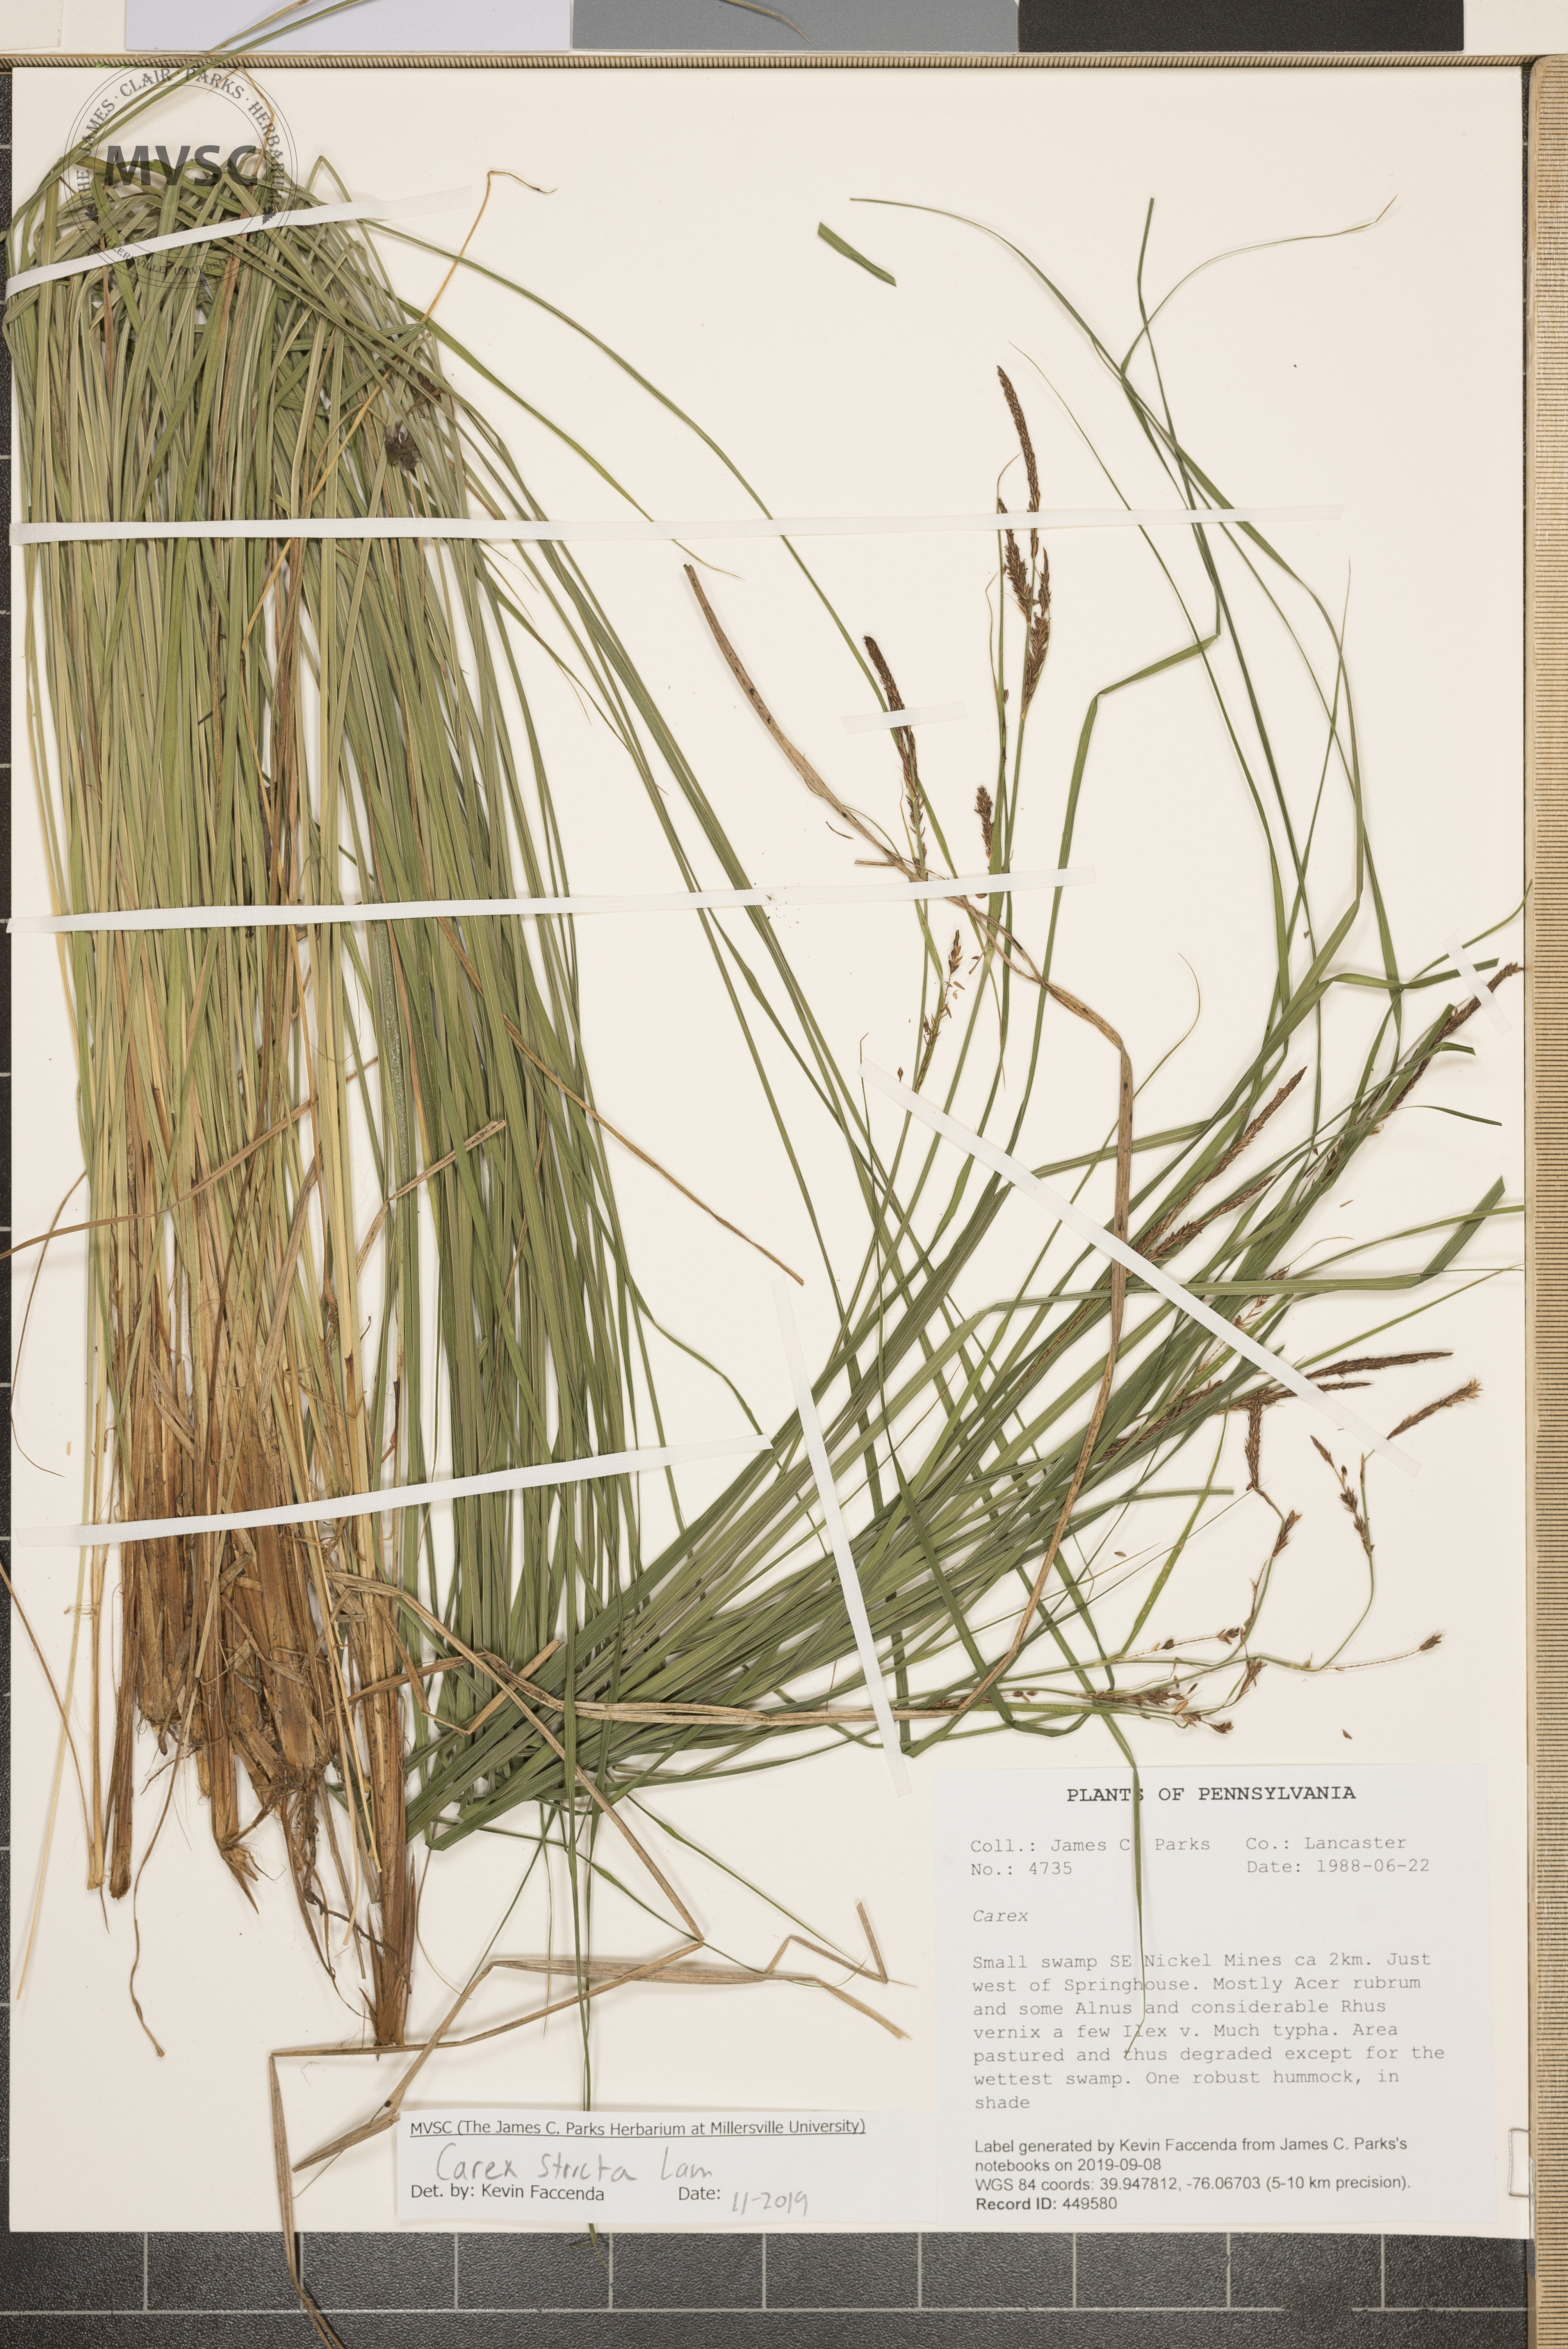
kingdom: Plantae
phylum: Tracheophyta
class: Liliopsida
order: Poales
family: Cyperaceae
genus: Carex
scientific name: Carex stricta
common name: Hummock sedge
